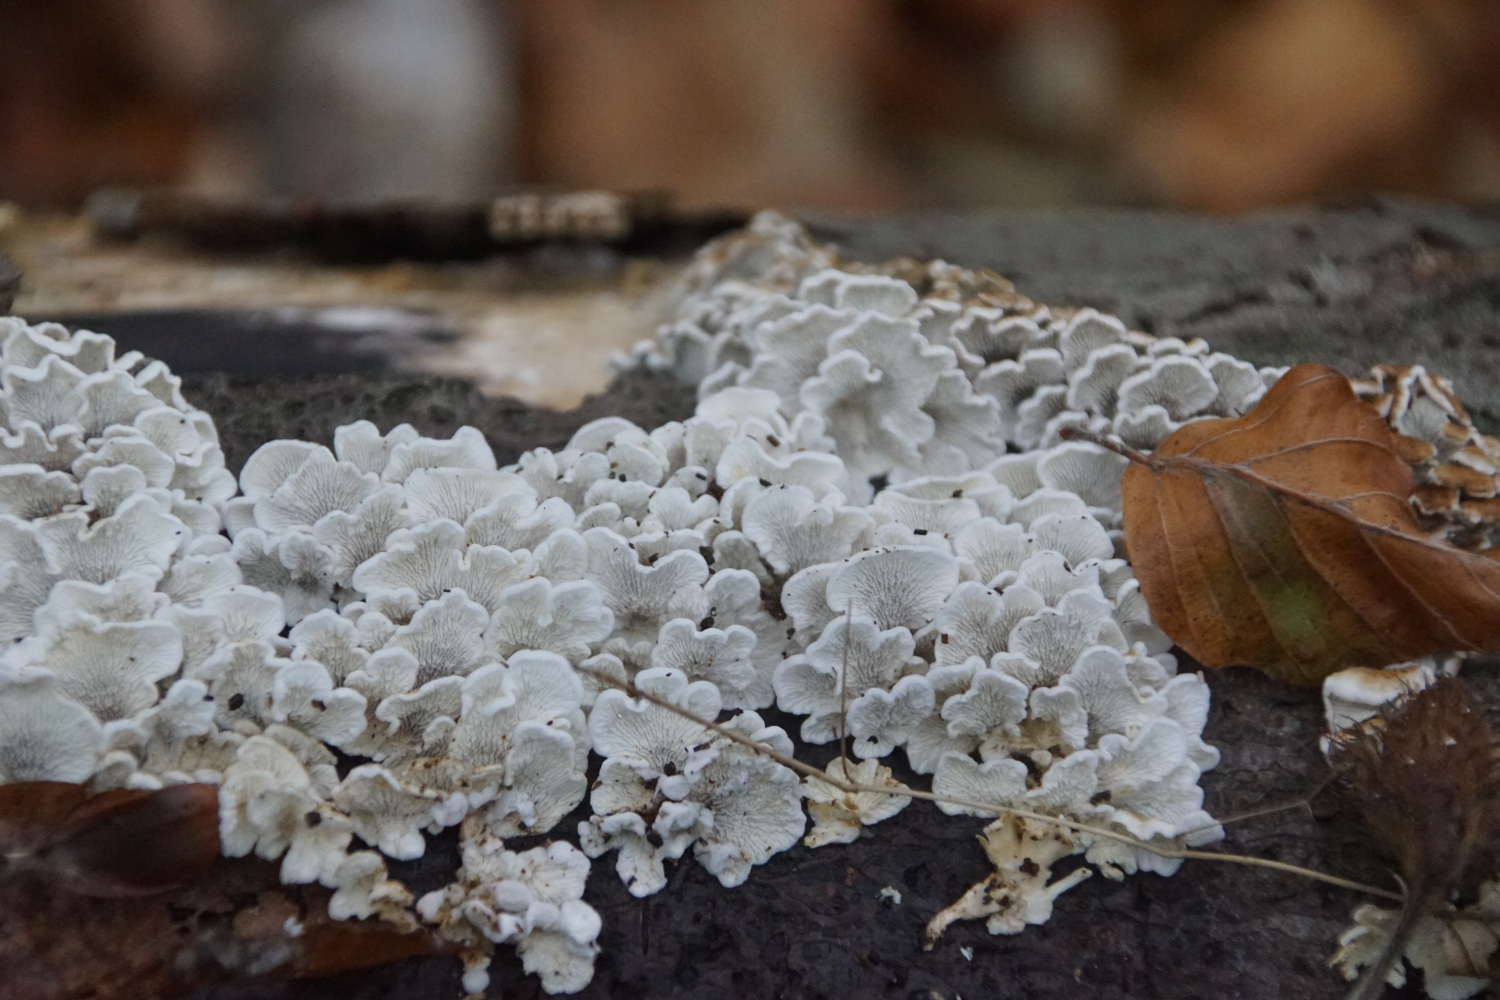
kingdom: Fungi
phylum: Basidiomycota
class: Agaricomycetes
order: Amylocorticiales
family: Amylocorticiaceae
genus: Plicaturopsis
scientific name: Plicaturopsis crispa
